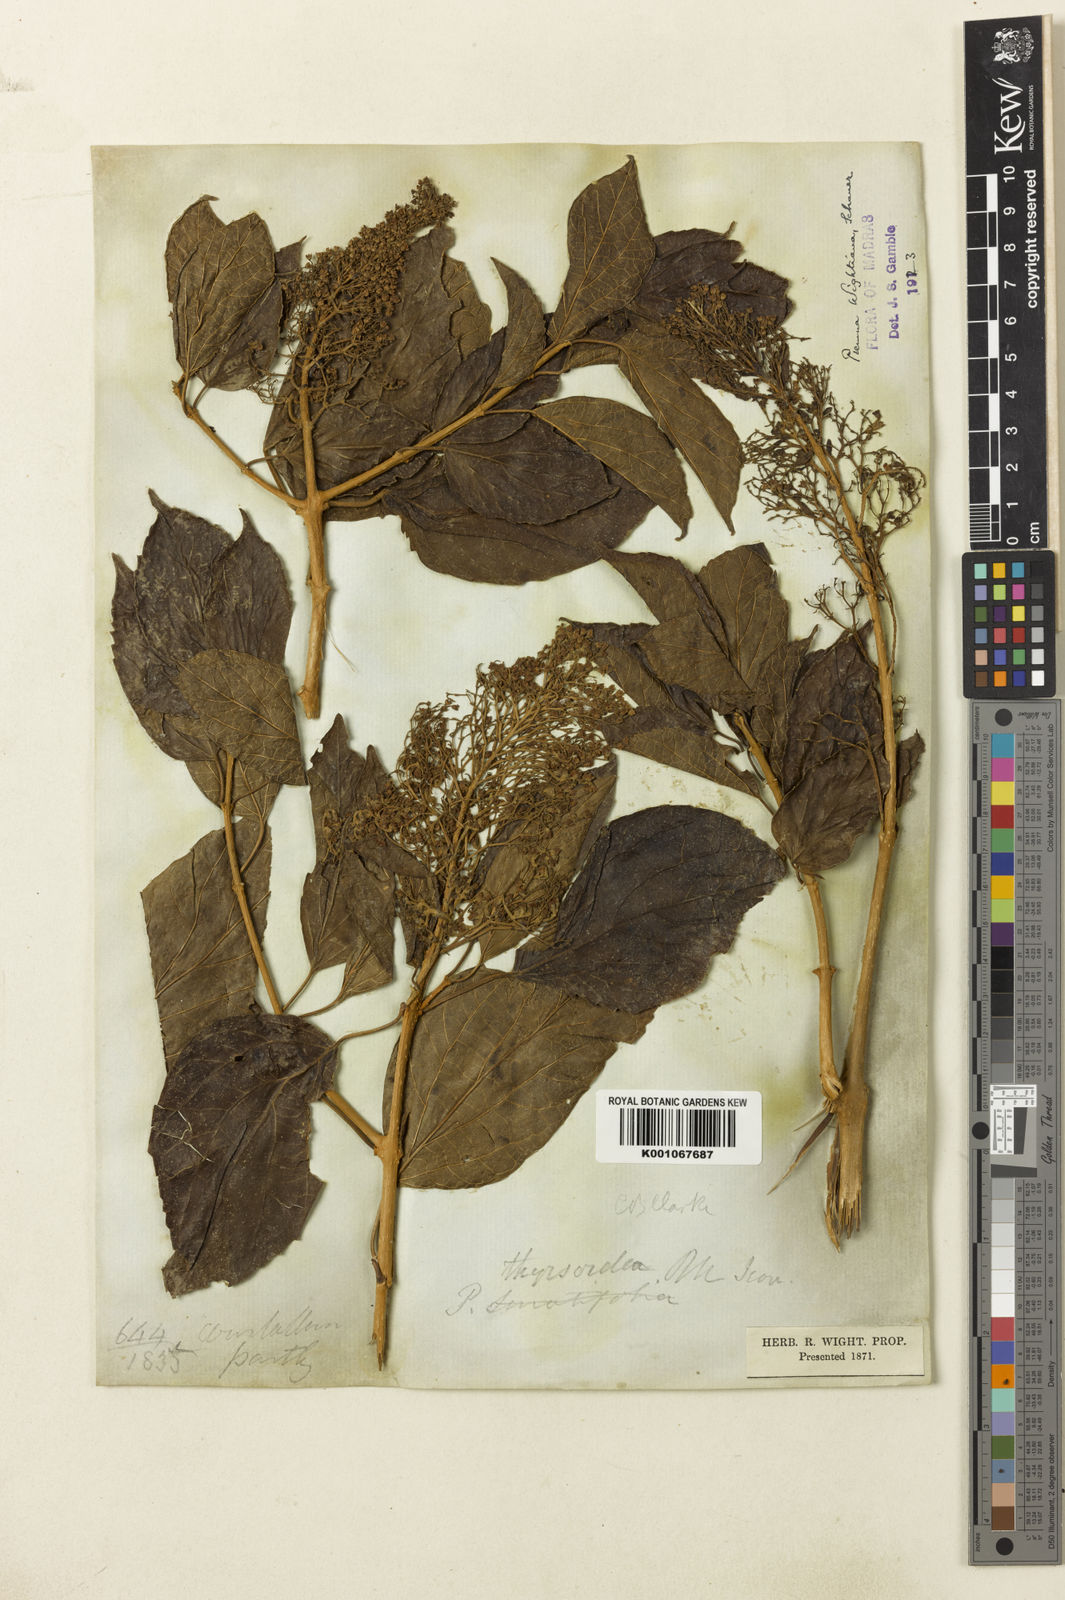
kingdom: Plantae
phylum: Tracheophyta
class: Magnoliopsida
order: Lamiales
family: Lamiaceae
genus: Premna
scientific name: Premna wightiana
